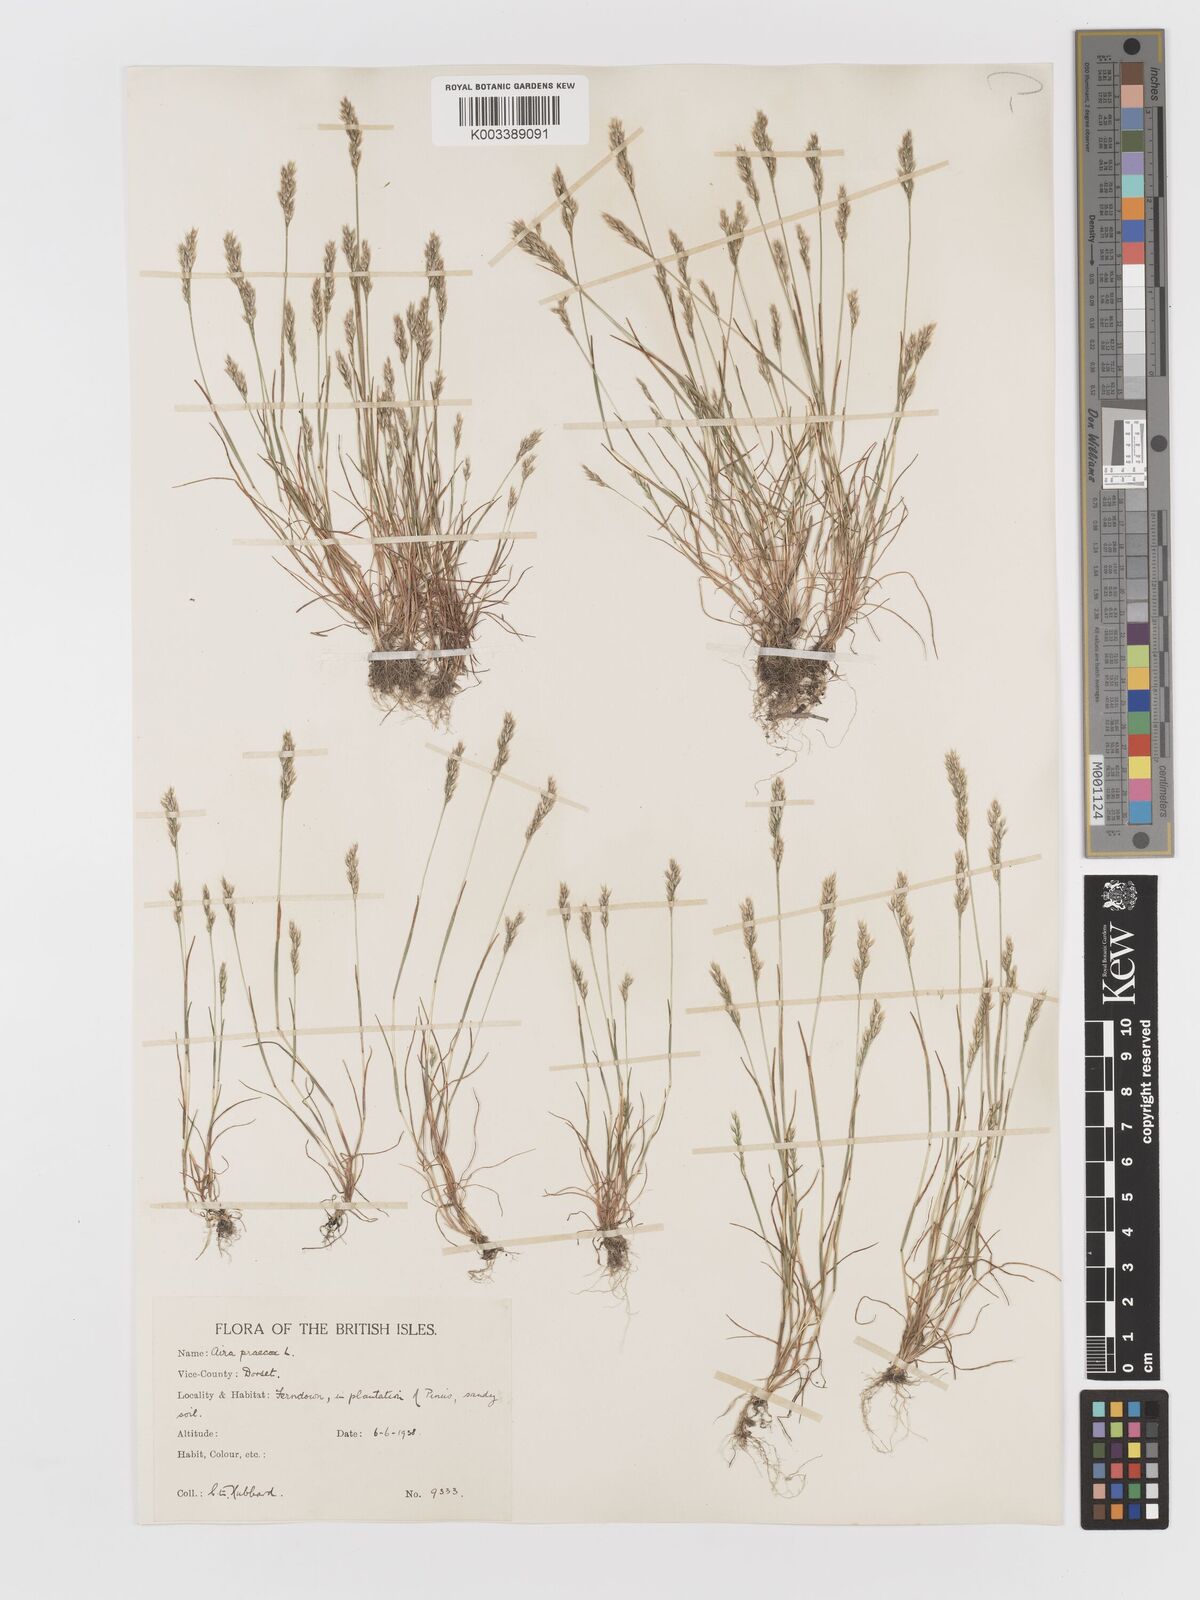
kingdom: Plantae
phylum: Tracheophyta
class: Liliopsida
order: Poales
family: Poaceae
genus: Aira
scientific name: Aira praecox
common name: Early hair-grass
